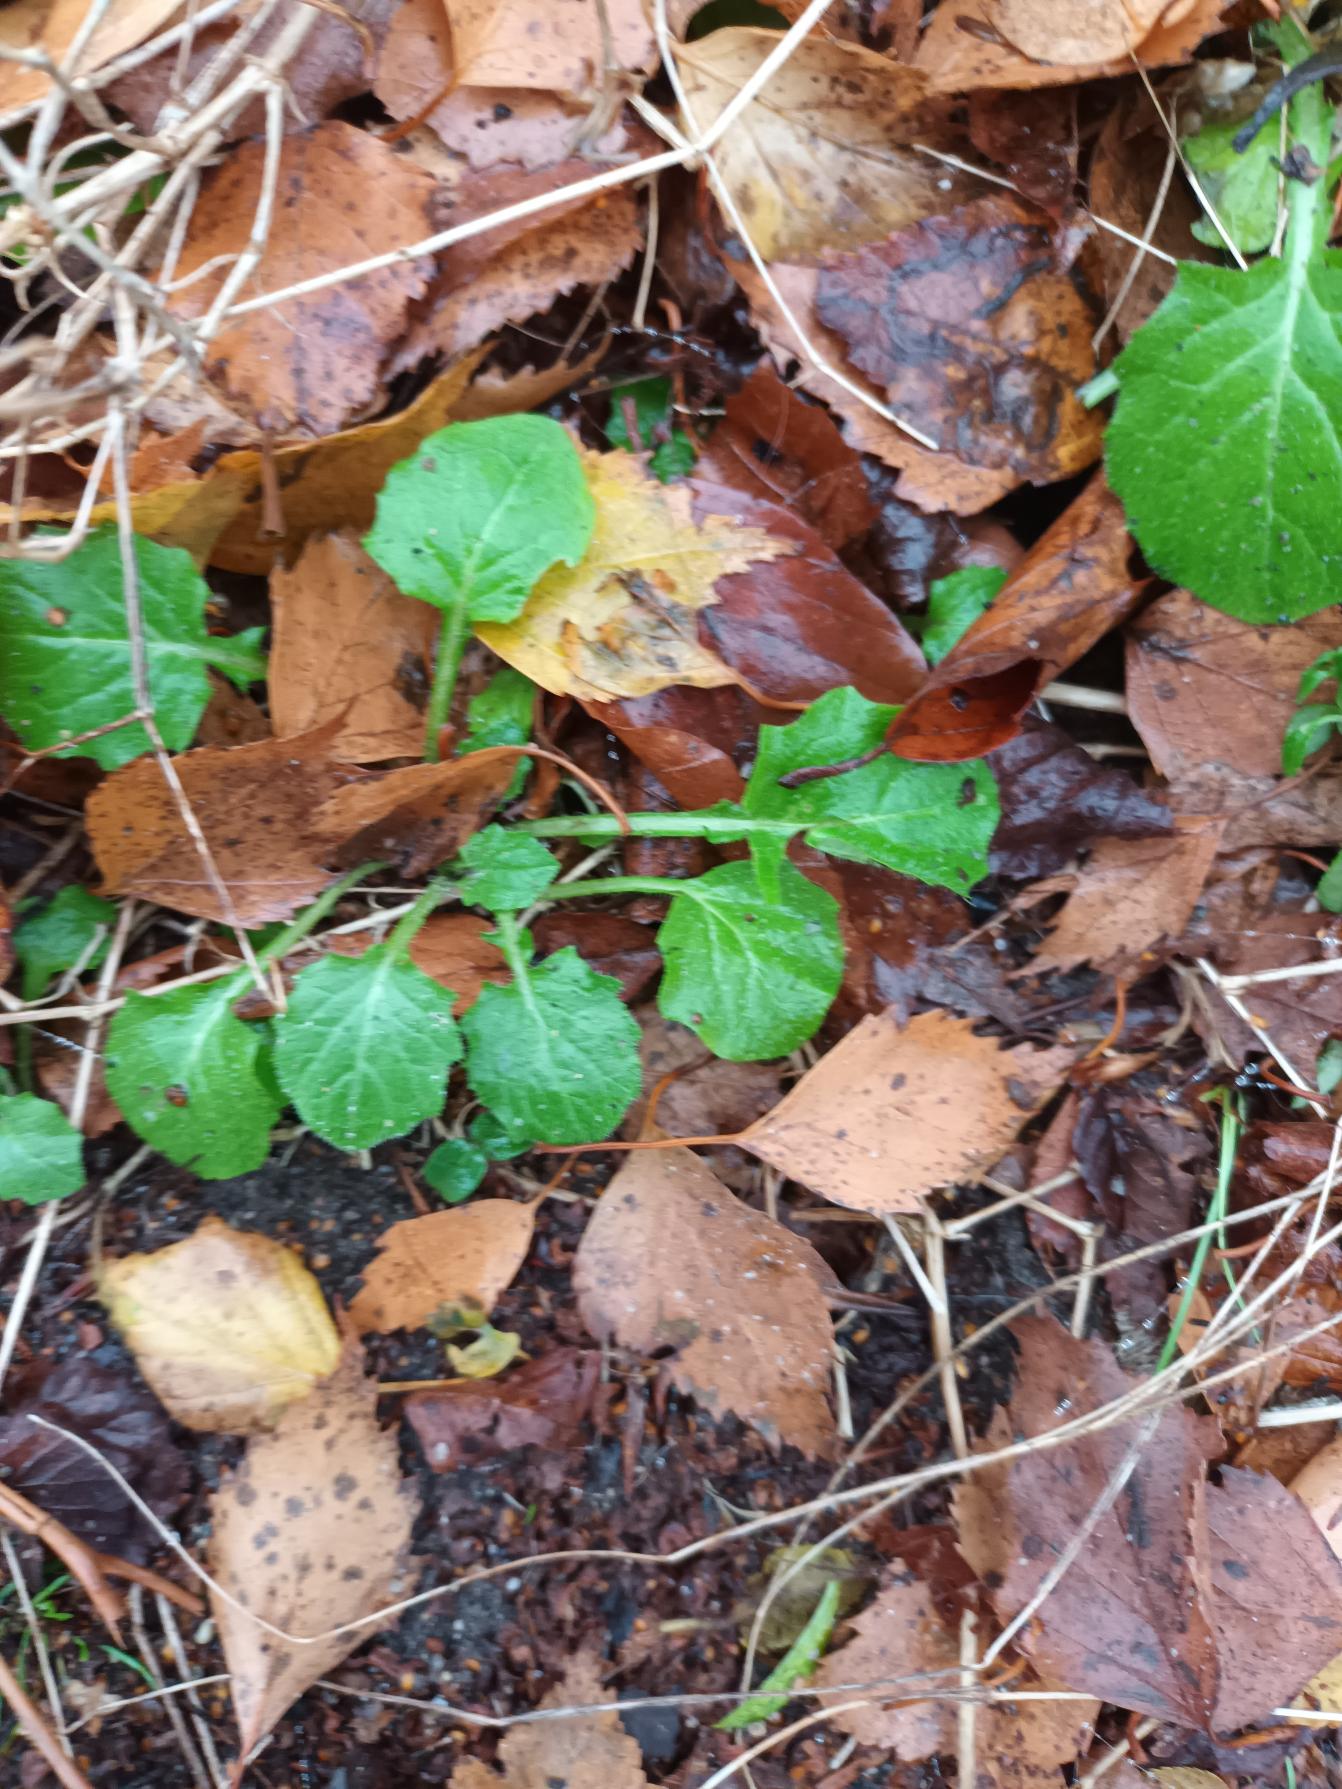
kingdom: Plantae
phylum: Tracheophyta
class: Magnoliopsida
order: Asterales
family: Asteraceae
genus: Lapsana
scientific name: Lapsana communis
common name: Haremad
